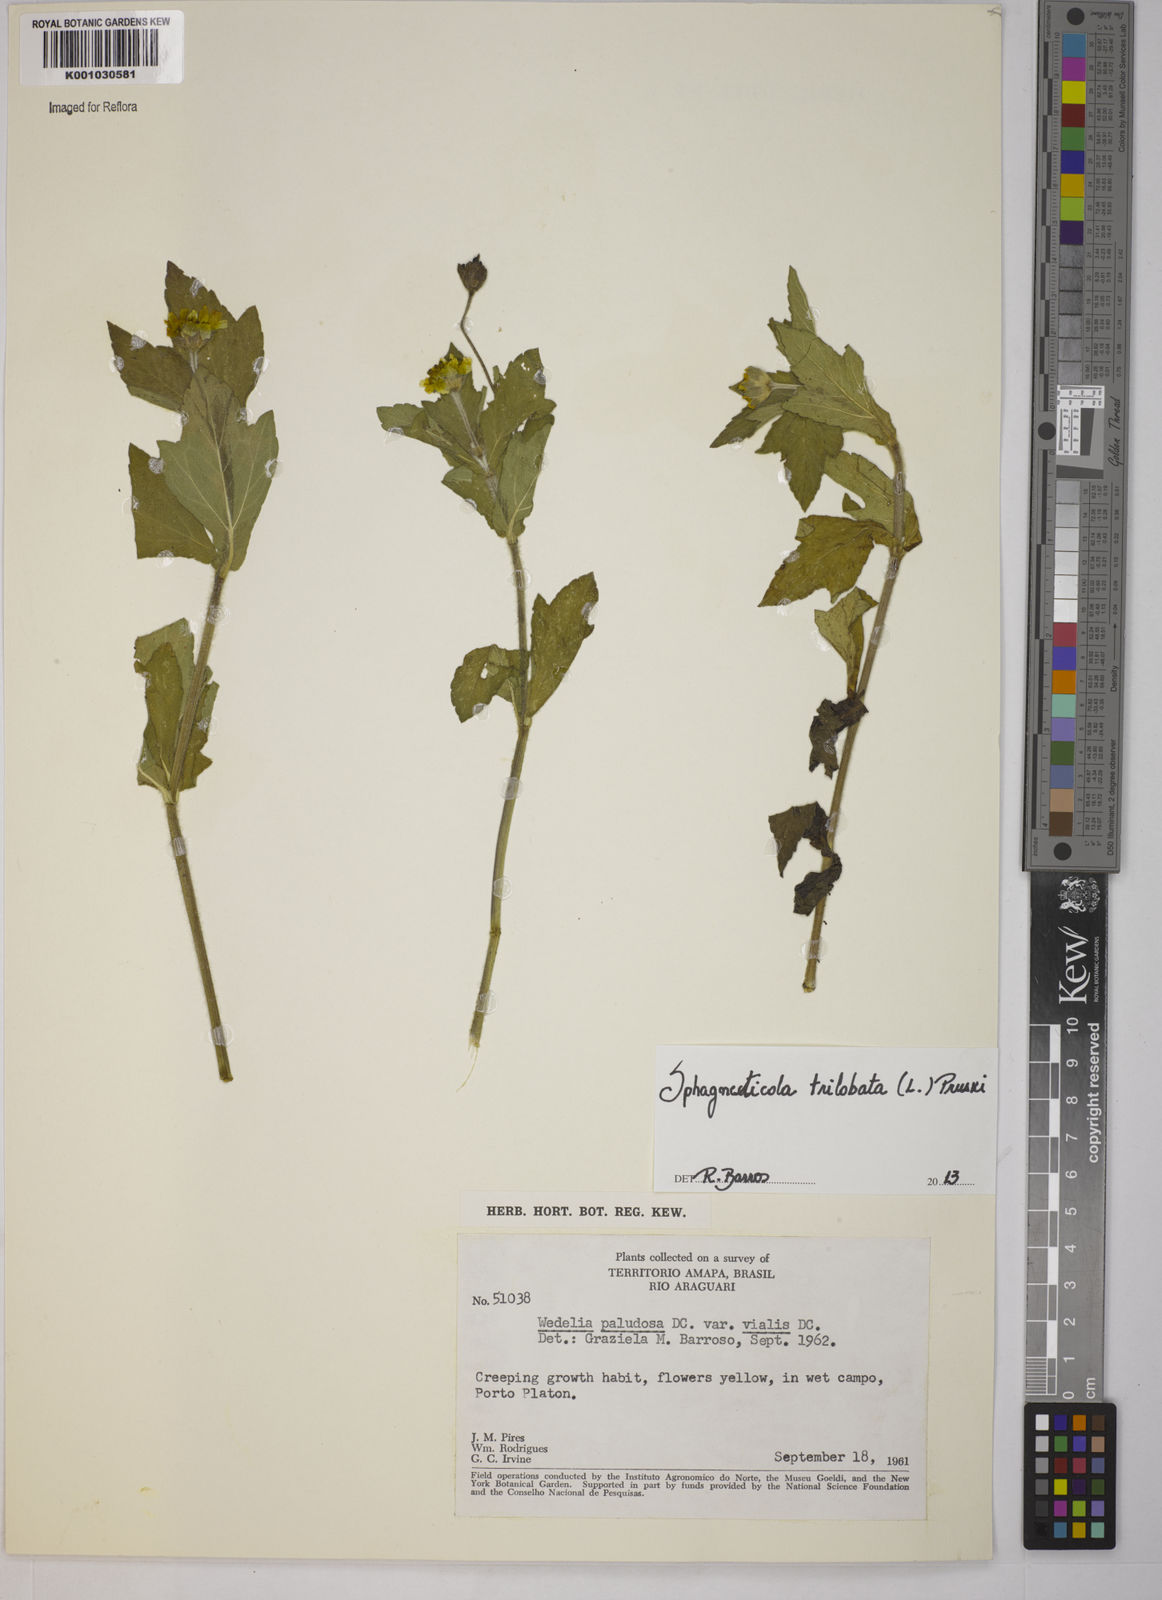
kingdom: Plantae
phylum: Tracheophyta
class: Magnoliopsida
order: Asterales
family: Asteraceae
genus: Sphagneticola
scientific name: Sphagneticola trilobata
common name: Bay biscayne creeping-oxeye
